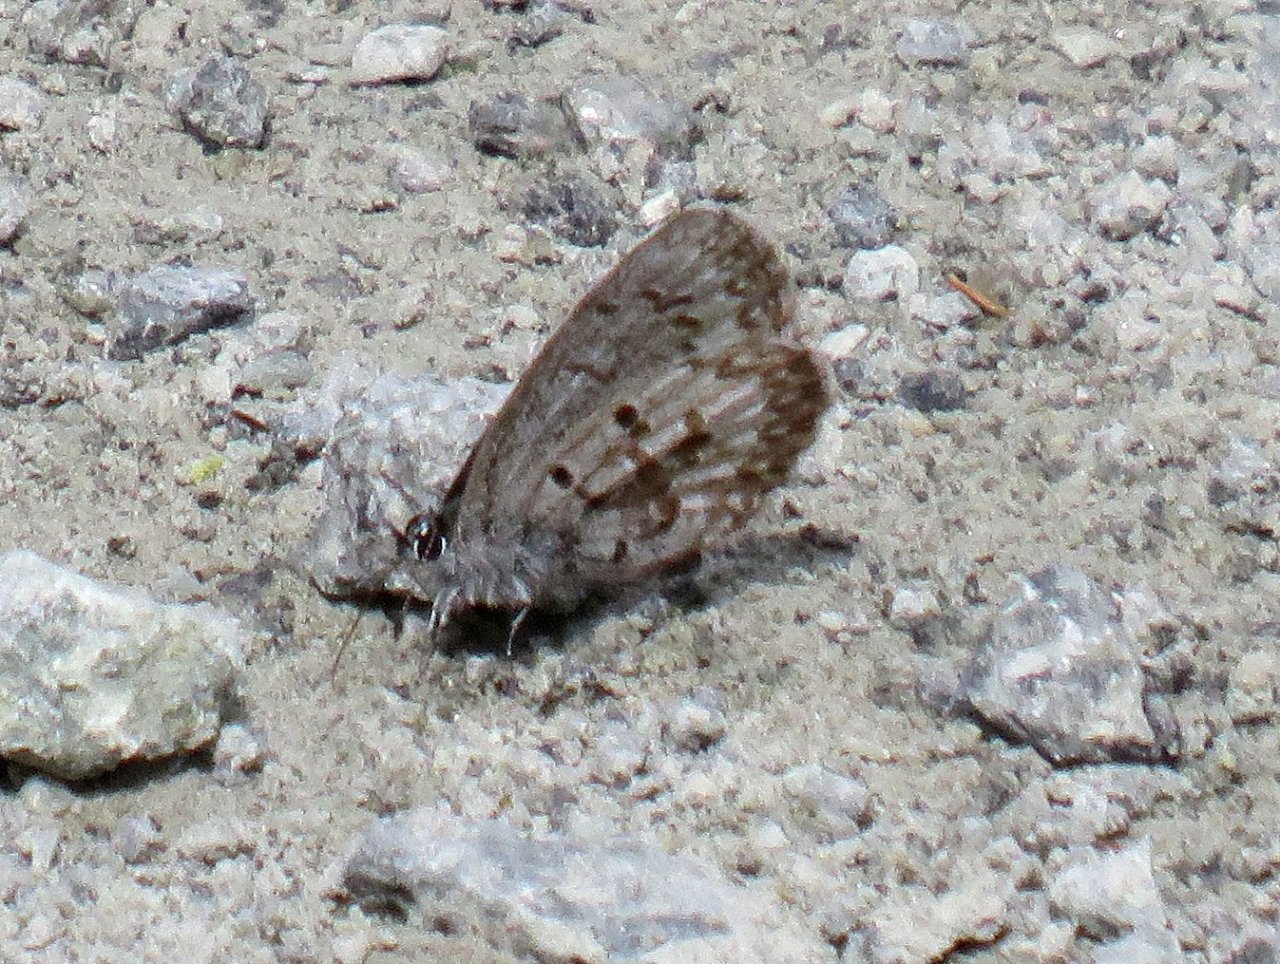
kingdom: Animalia
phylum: Arthropoda
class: Insecta
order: Lepidoptera
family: Lycaenidae
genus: Celastrina
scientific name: Celastrina lucia
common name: Northern Spring Azure
